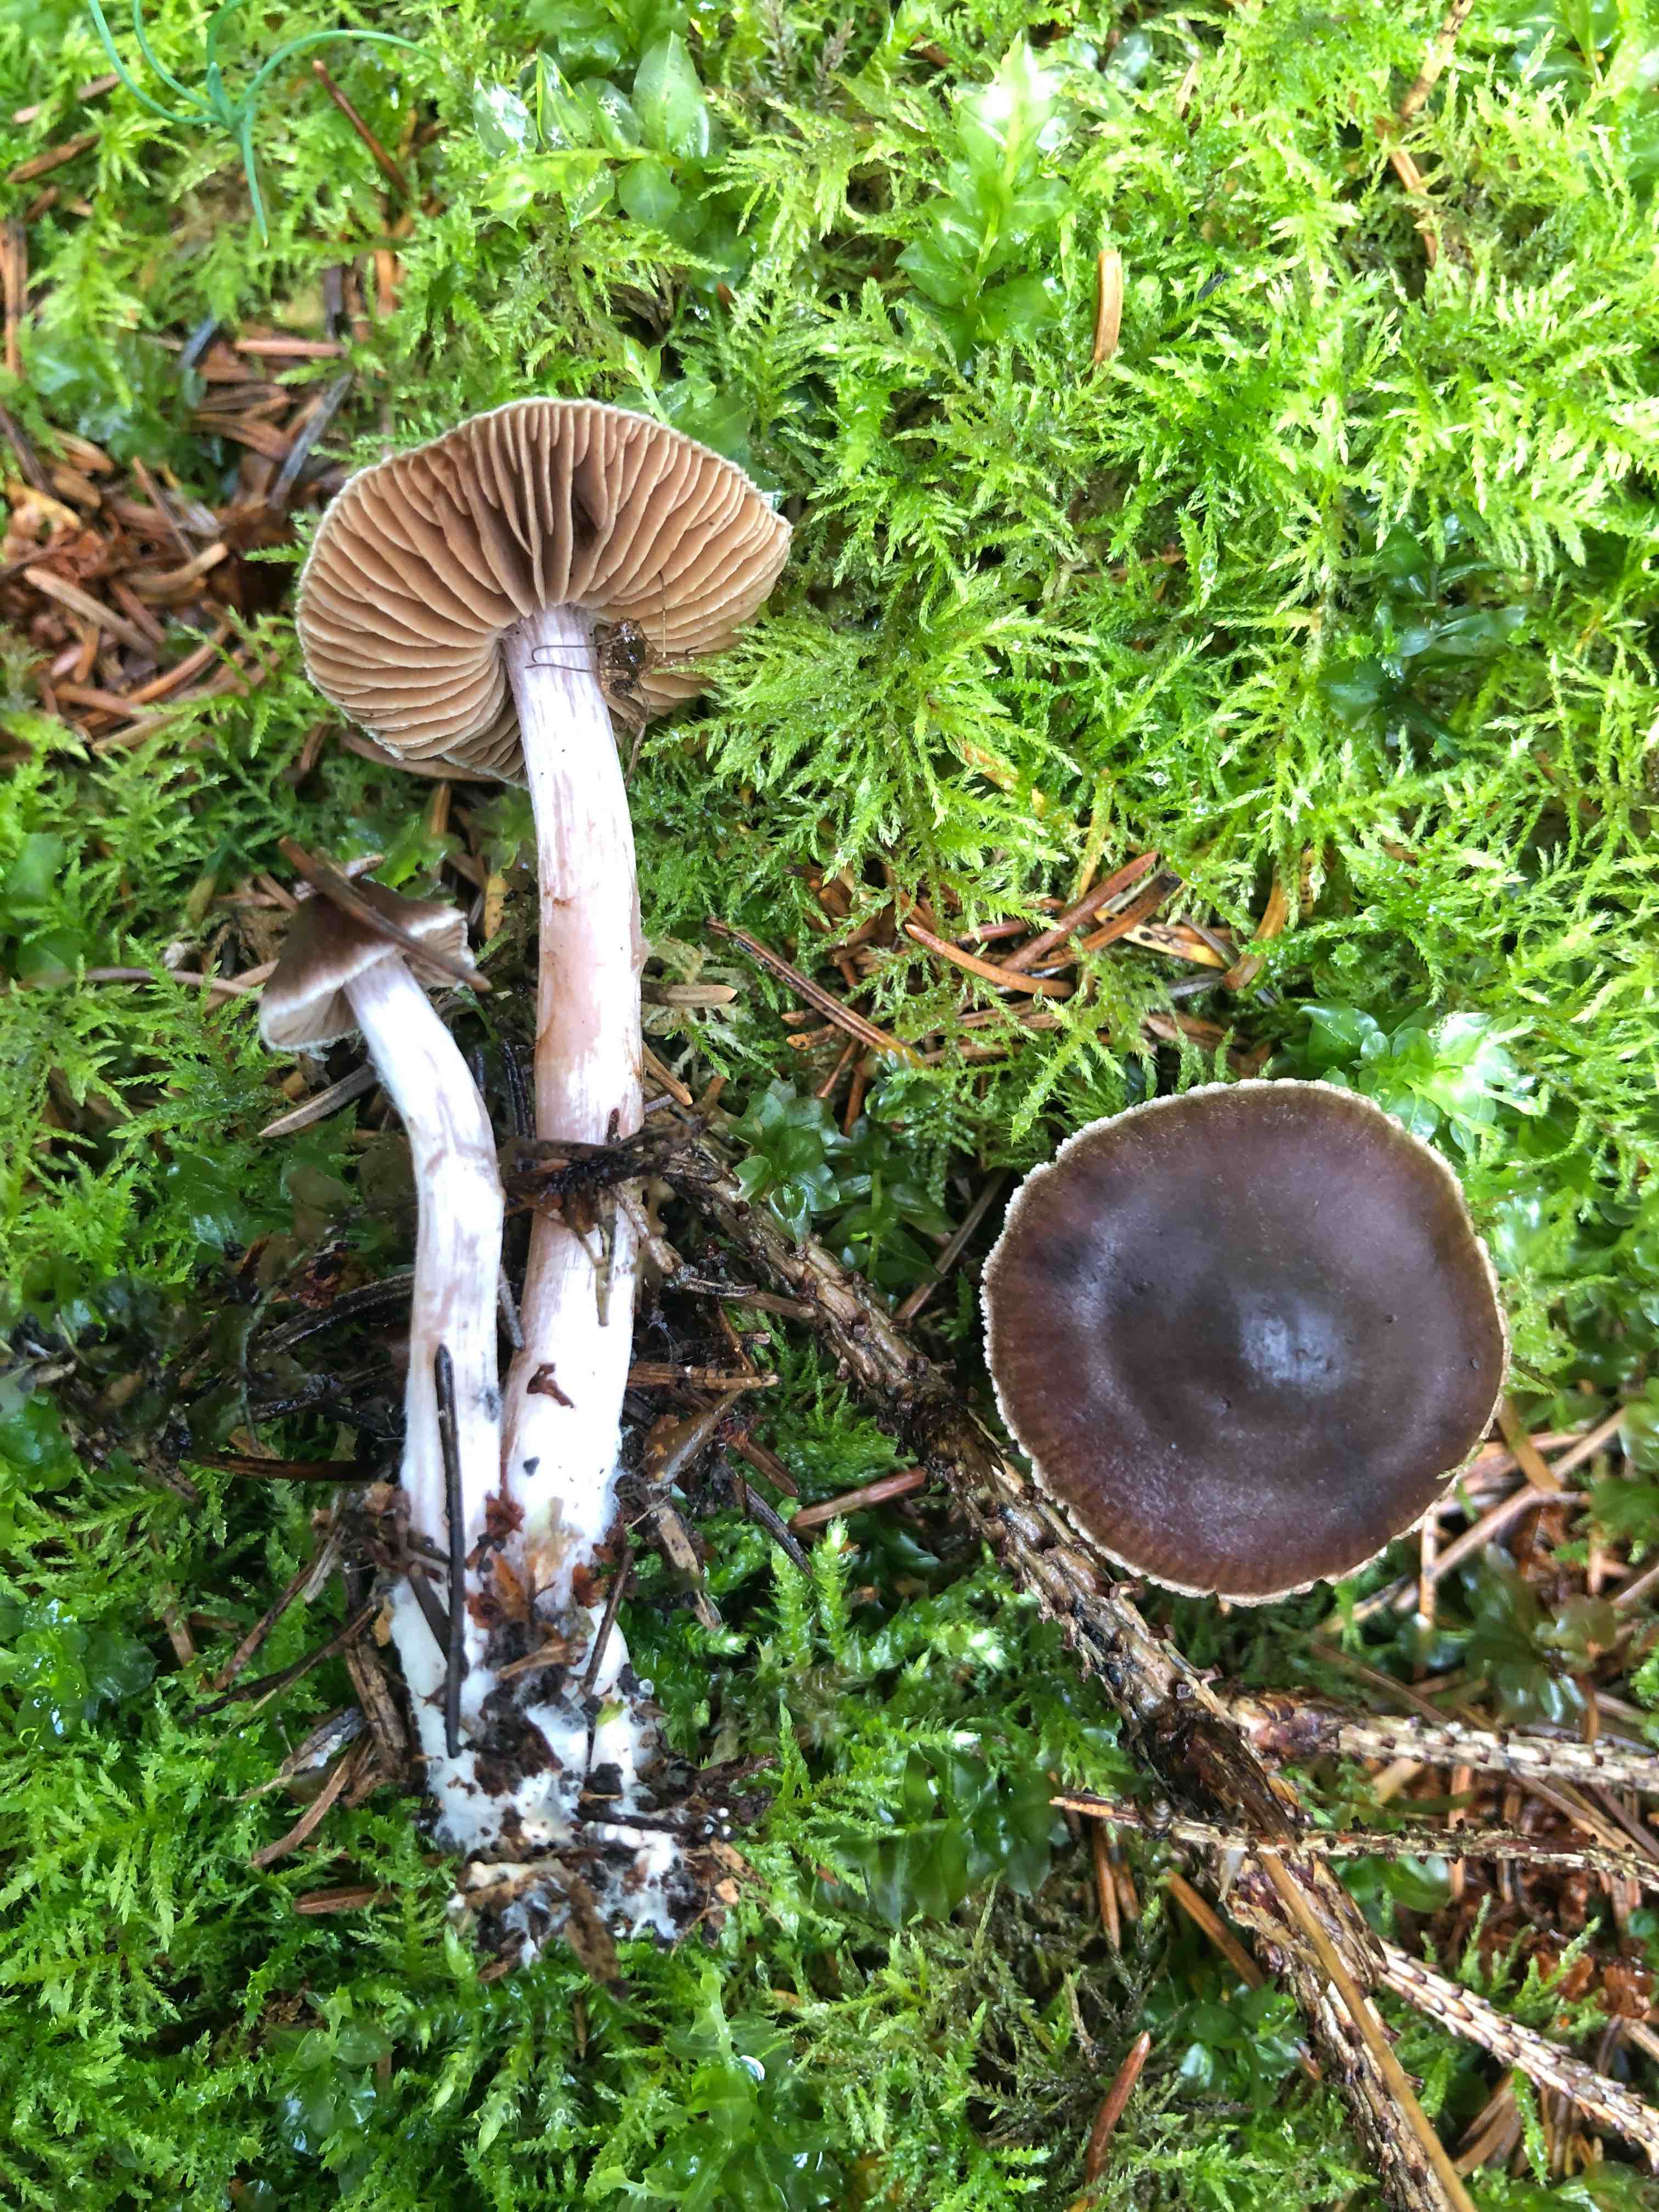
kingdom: Fungi
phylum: Basidiomycota
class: Agaricomycetes
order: Agaricales
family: Cortinariaceae
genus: Cortinarius
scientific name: Cortinarius
